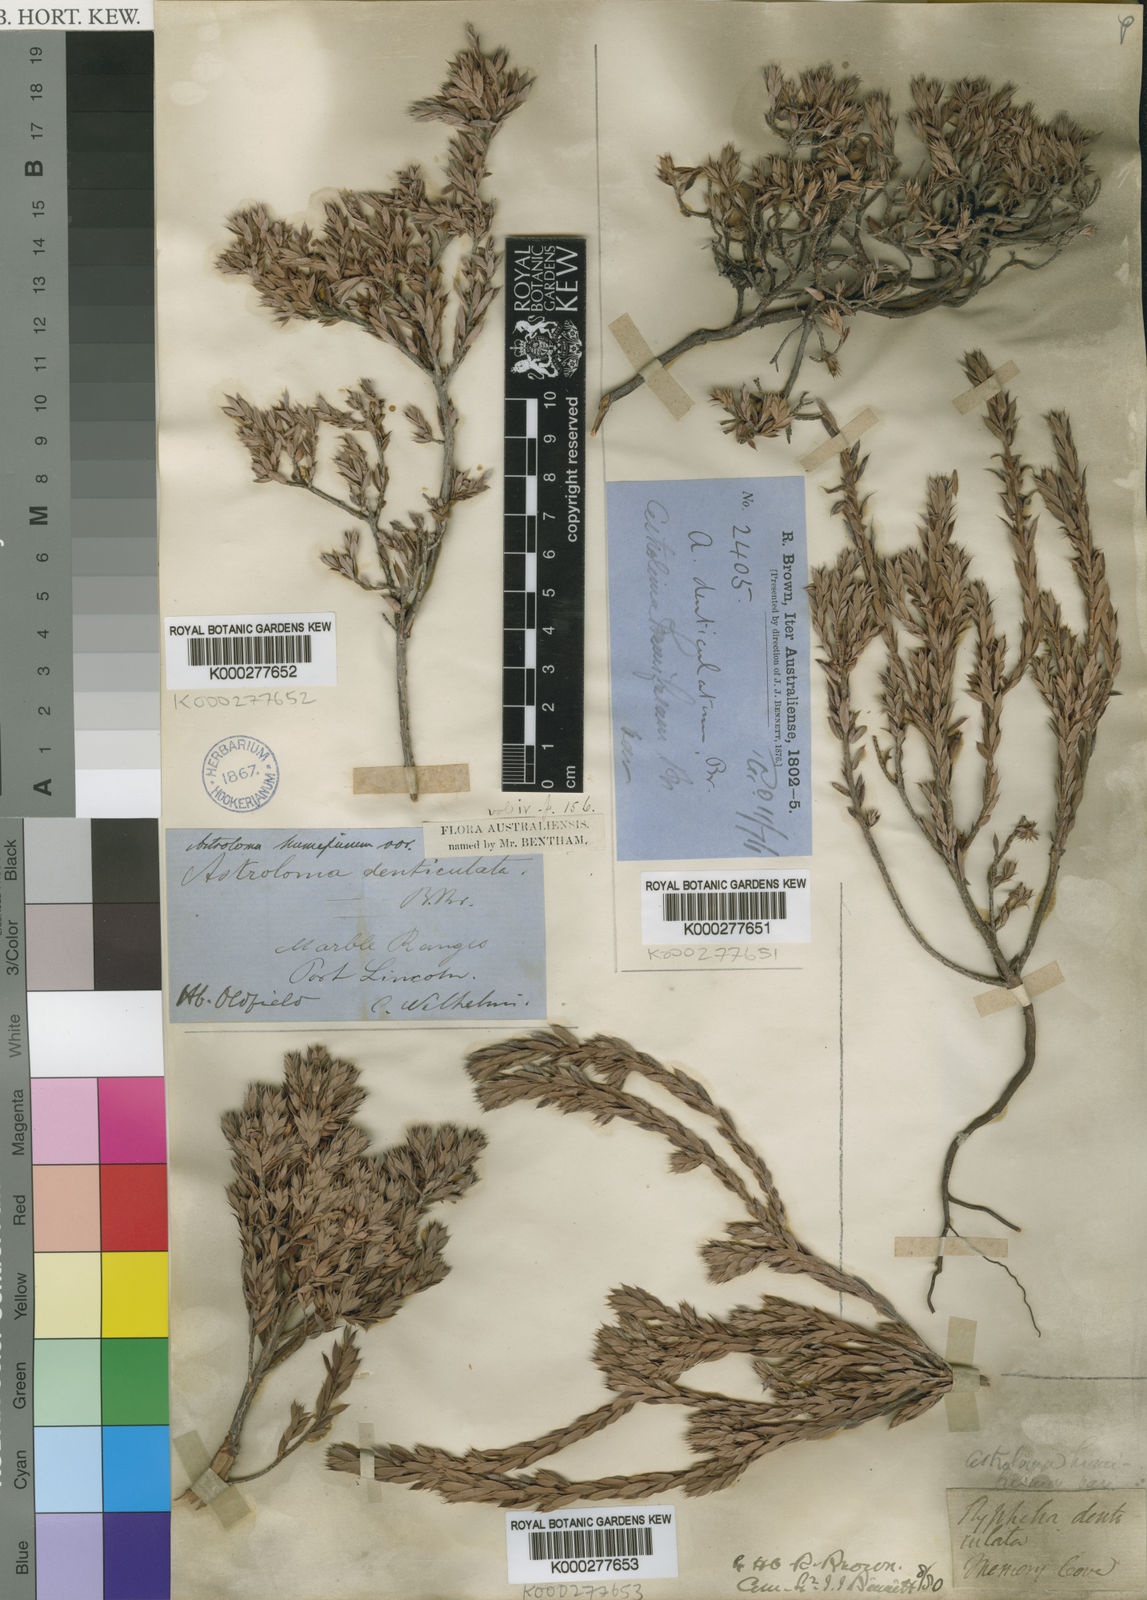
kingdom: Plantae
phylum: Tracheophyta
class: Magnoliopsida
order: Ericales
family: Ericaceae
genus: Styphelia
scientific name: Styphelia humifusa
